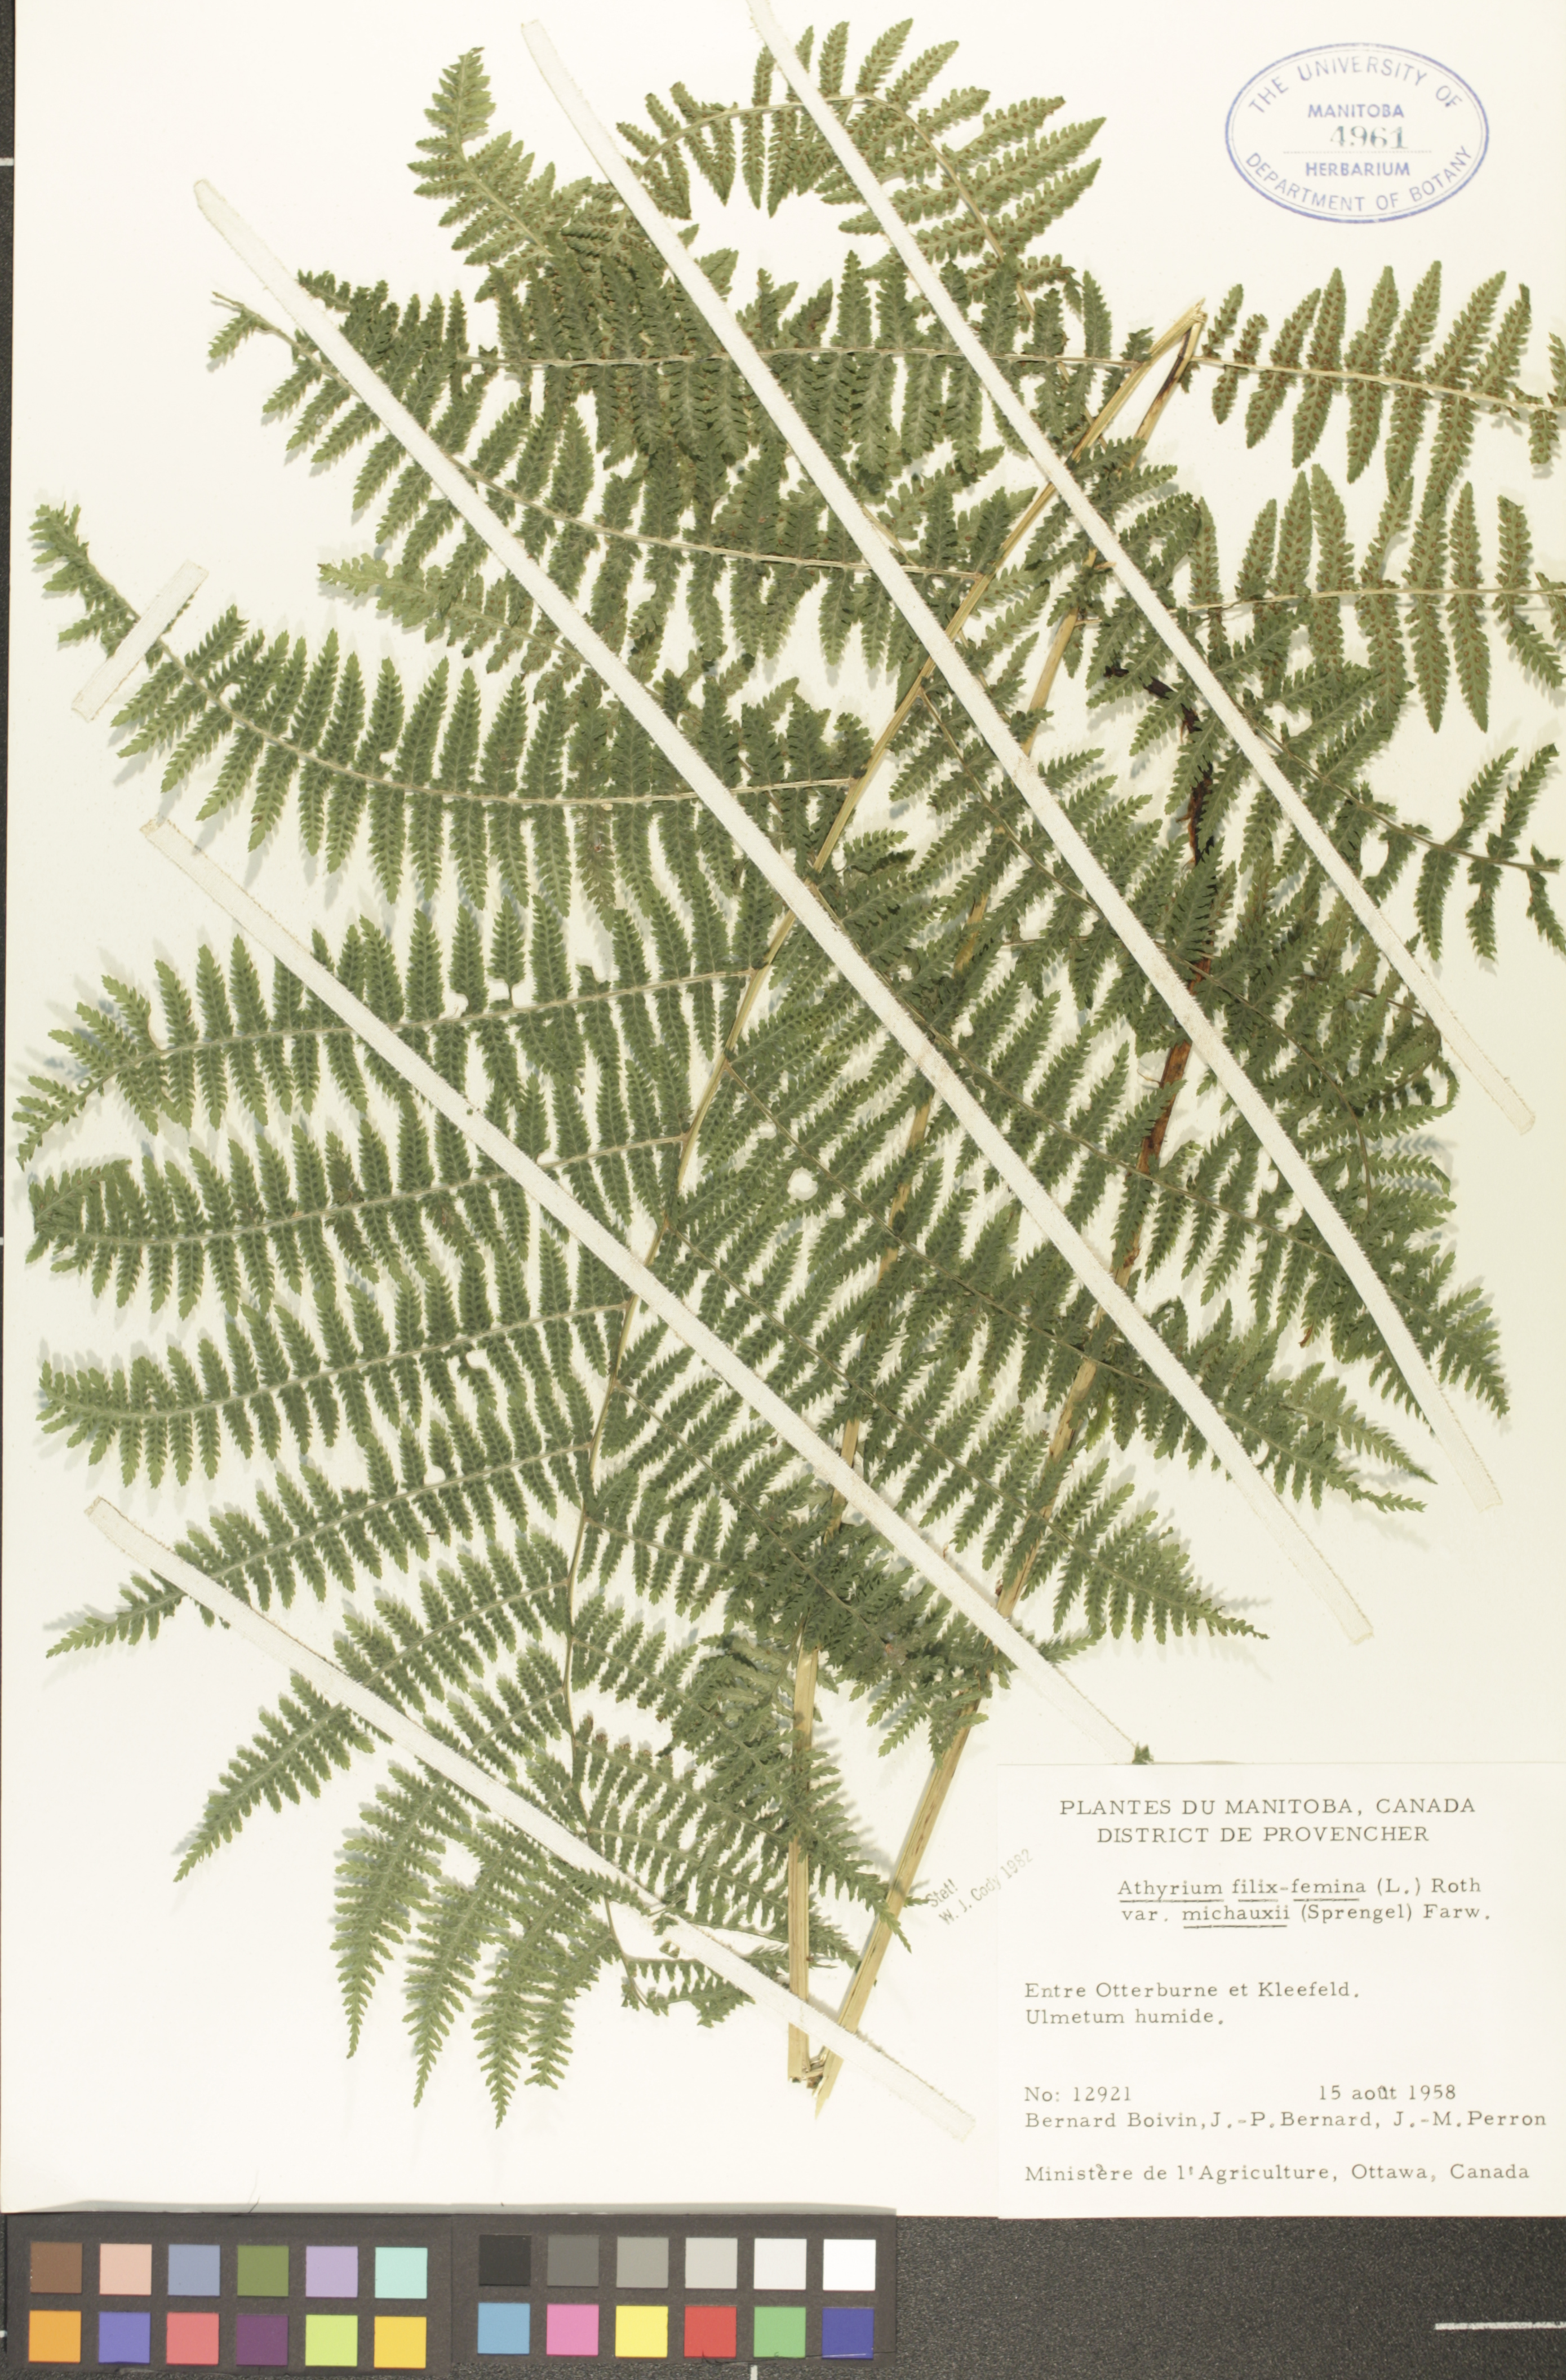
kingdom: Plantae
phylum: Tracheophyta
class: Polypodiopsida
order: Polypodiales
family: Athyriaceae
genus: Athyrium
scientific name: Athyrium angustum
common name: Northern lady fern
